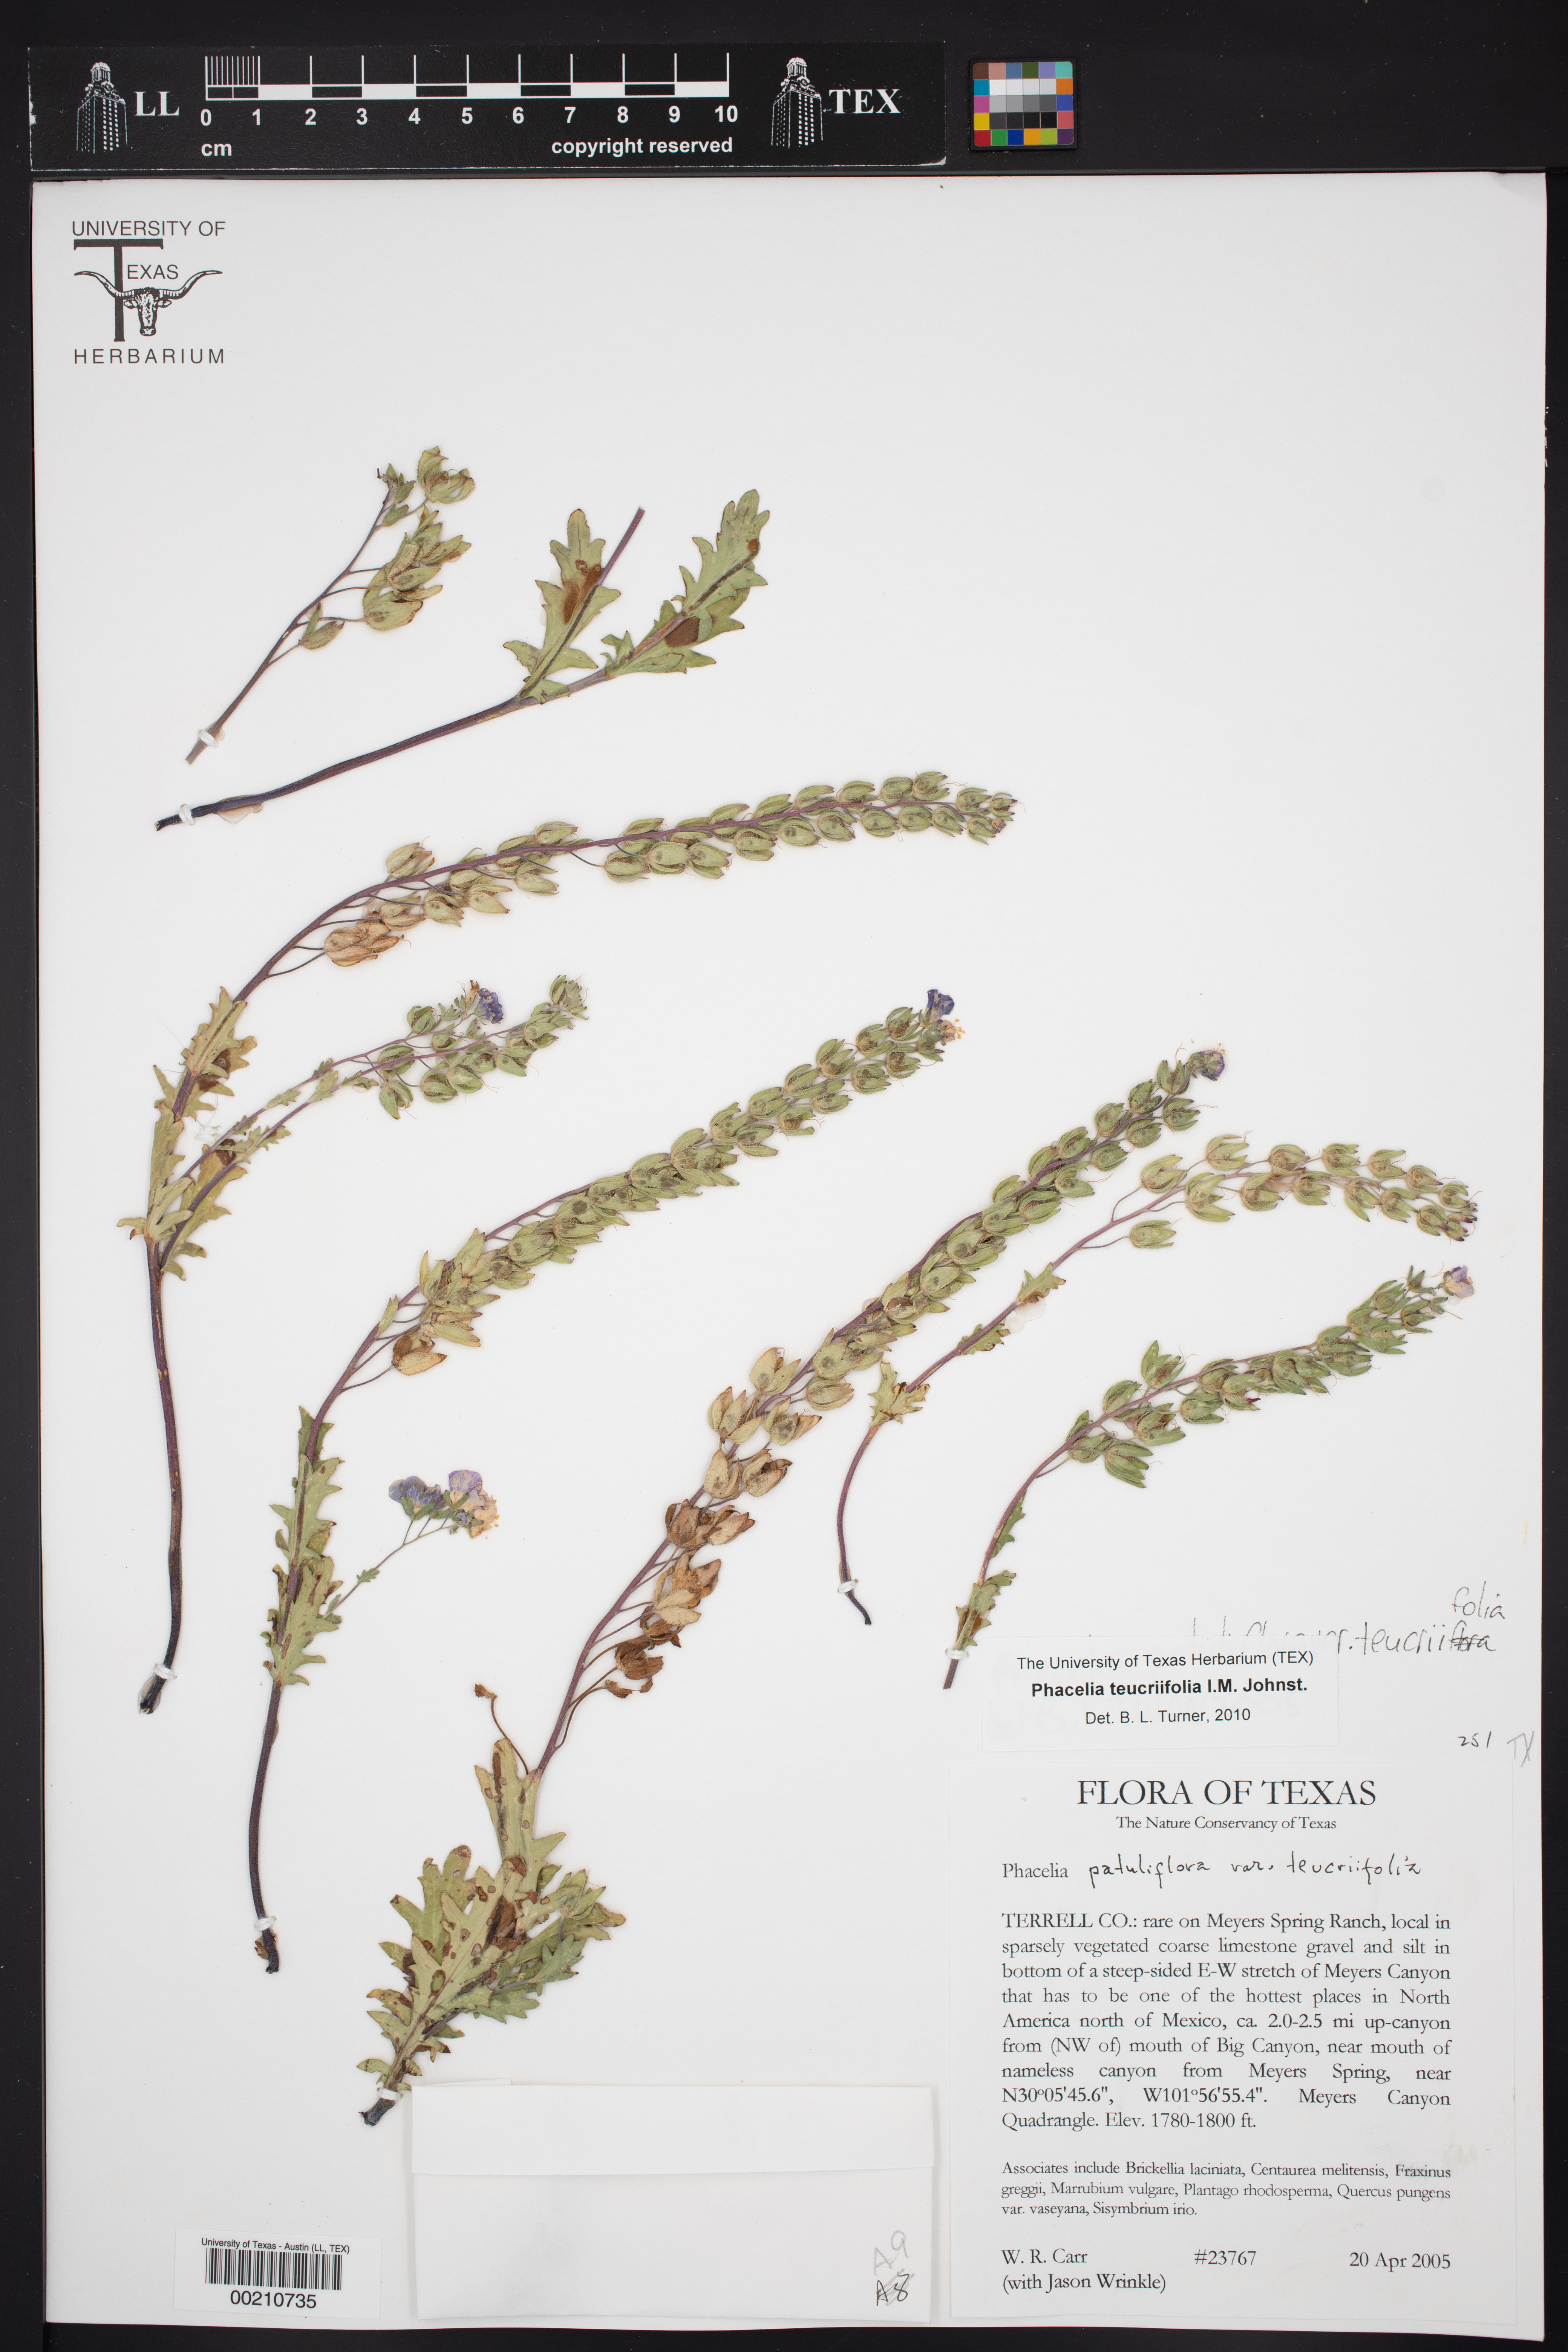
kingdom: Plantae
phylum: Tracheophyta
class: Magnoliopsida
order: Boraginales
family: Hydrophyllaceae
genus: Phacelia
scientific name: Phacelia patuliflora
